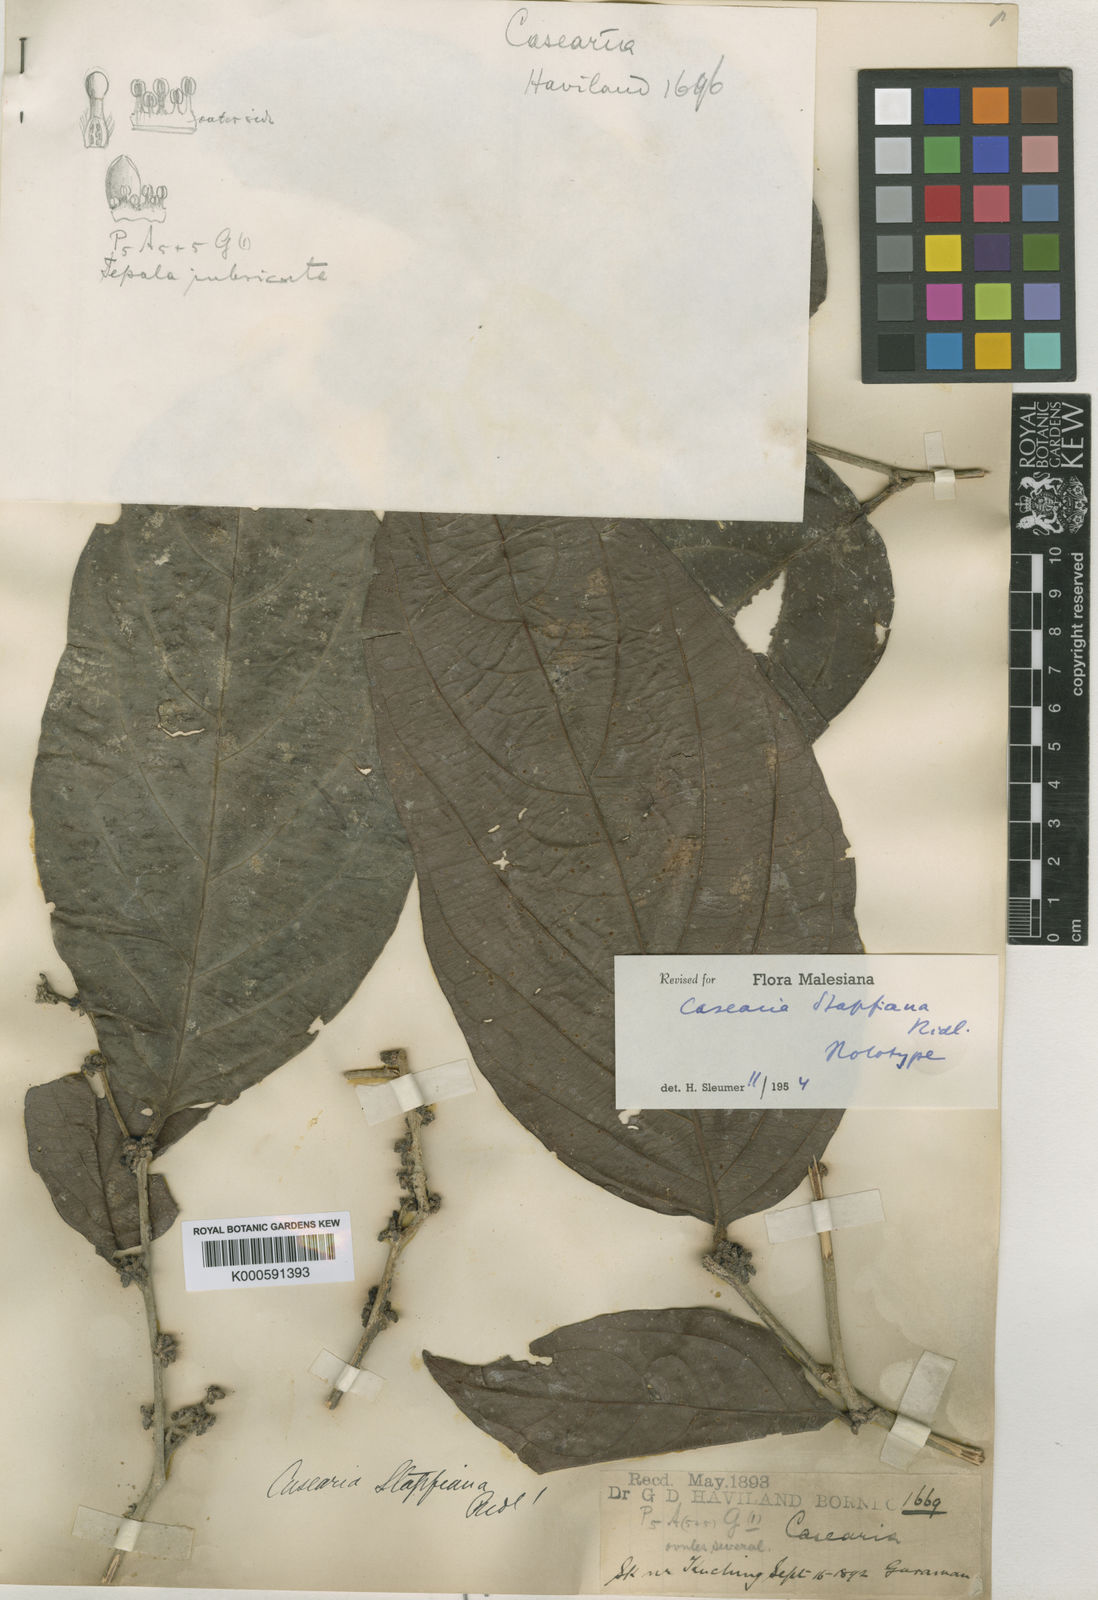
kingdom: Plantae
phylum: Tracheophyta
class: Magnoliopsida
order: Malpighiales
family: Salicaceae
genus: Casearia
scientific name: Casearia stapfiana
